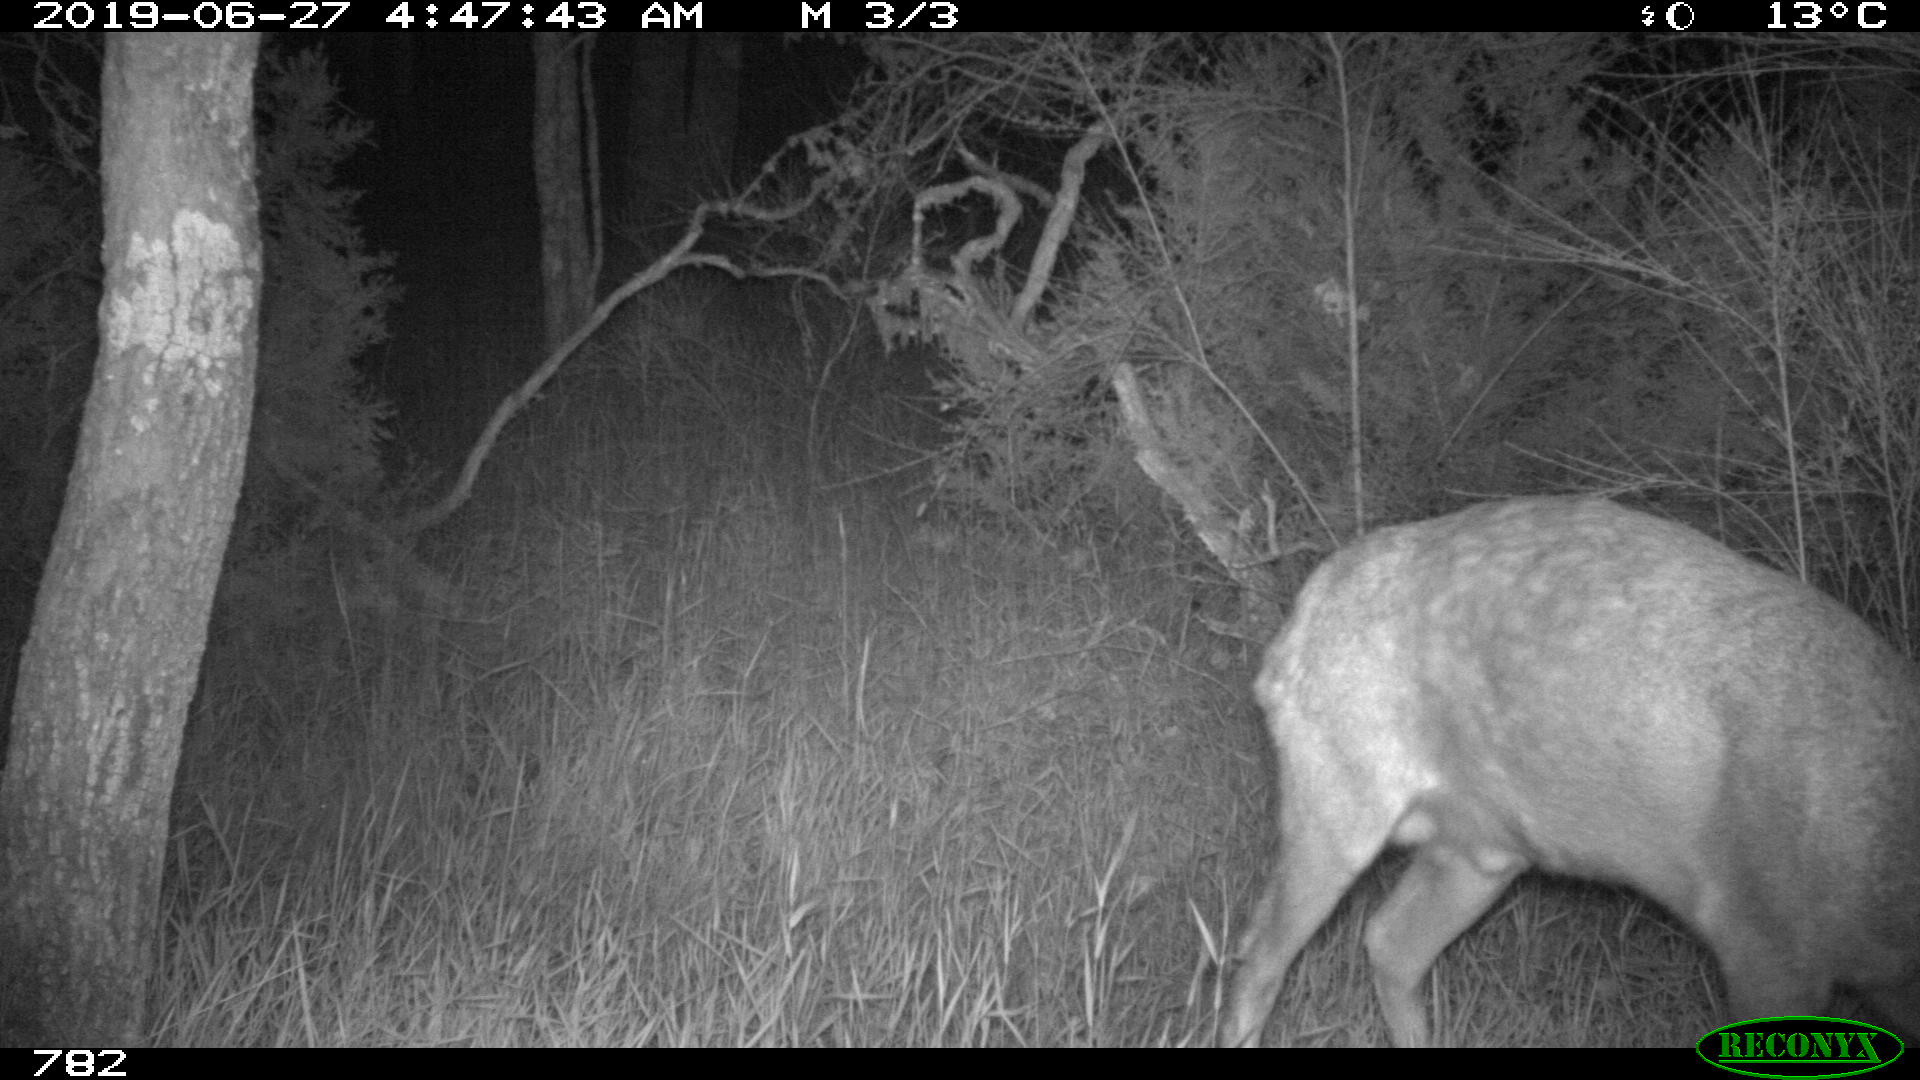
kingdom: Animalia
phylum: Chordata
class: Mammalia
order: Artiodactyla
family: Cervidae
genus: Capreolus
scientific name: Capreolus capreolus
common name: Western roe deer
